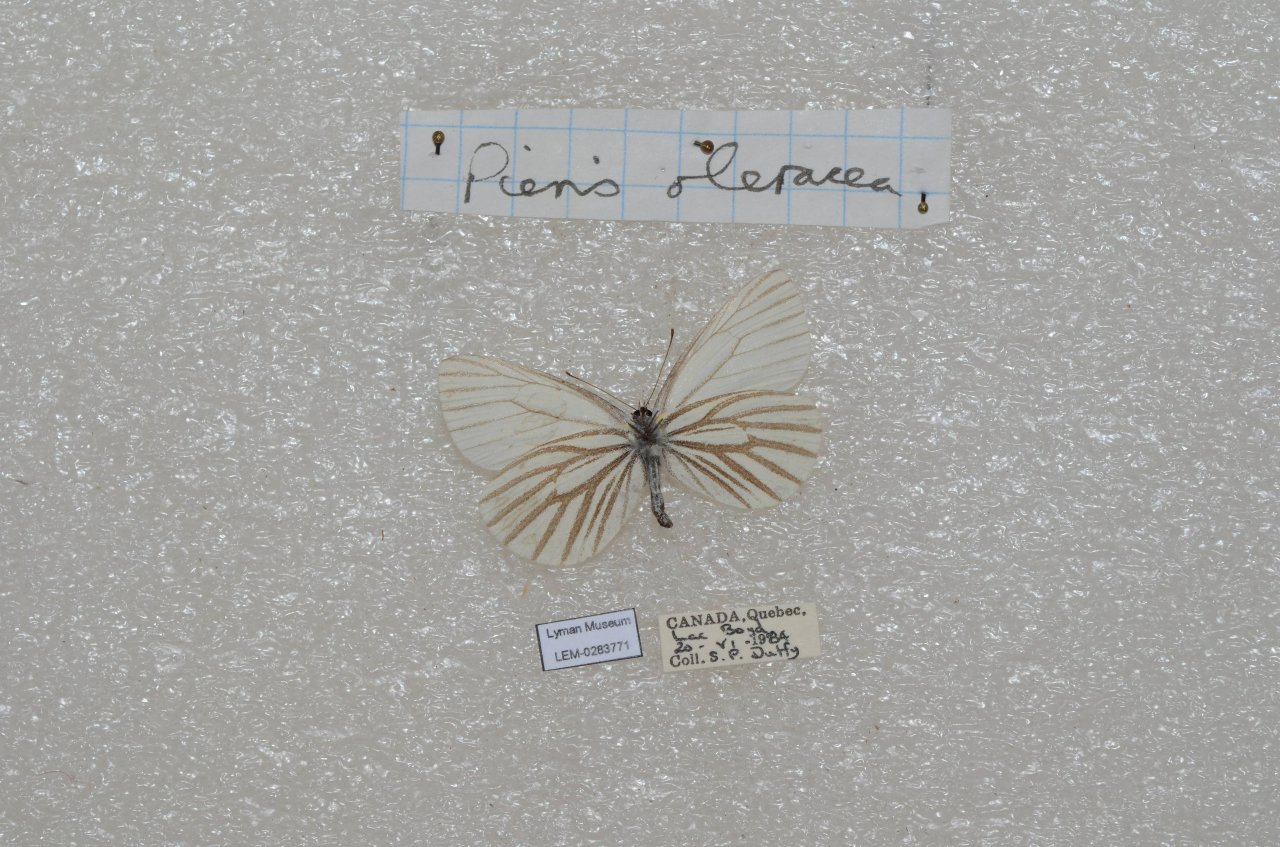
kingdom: Animalia
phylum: Arthropoda
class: Insecta
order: Lepidoptera
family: Pieridae
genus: Pieris
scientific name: Pieris oleracea
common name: Mustard White
